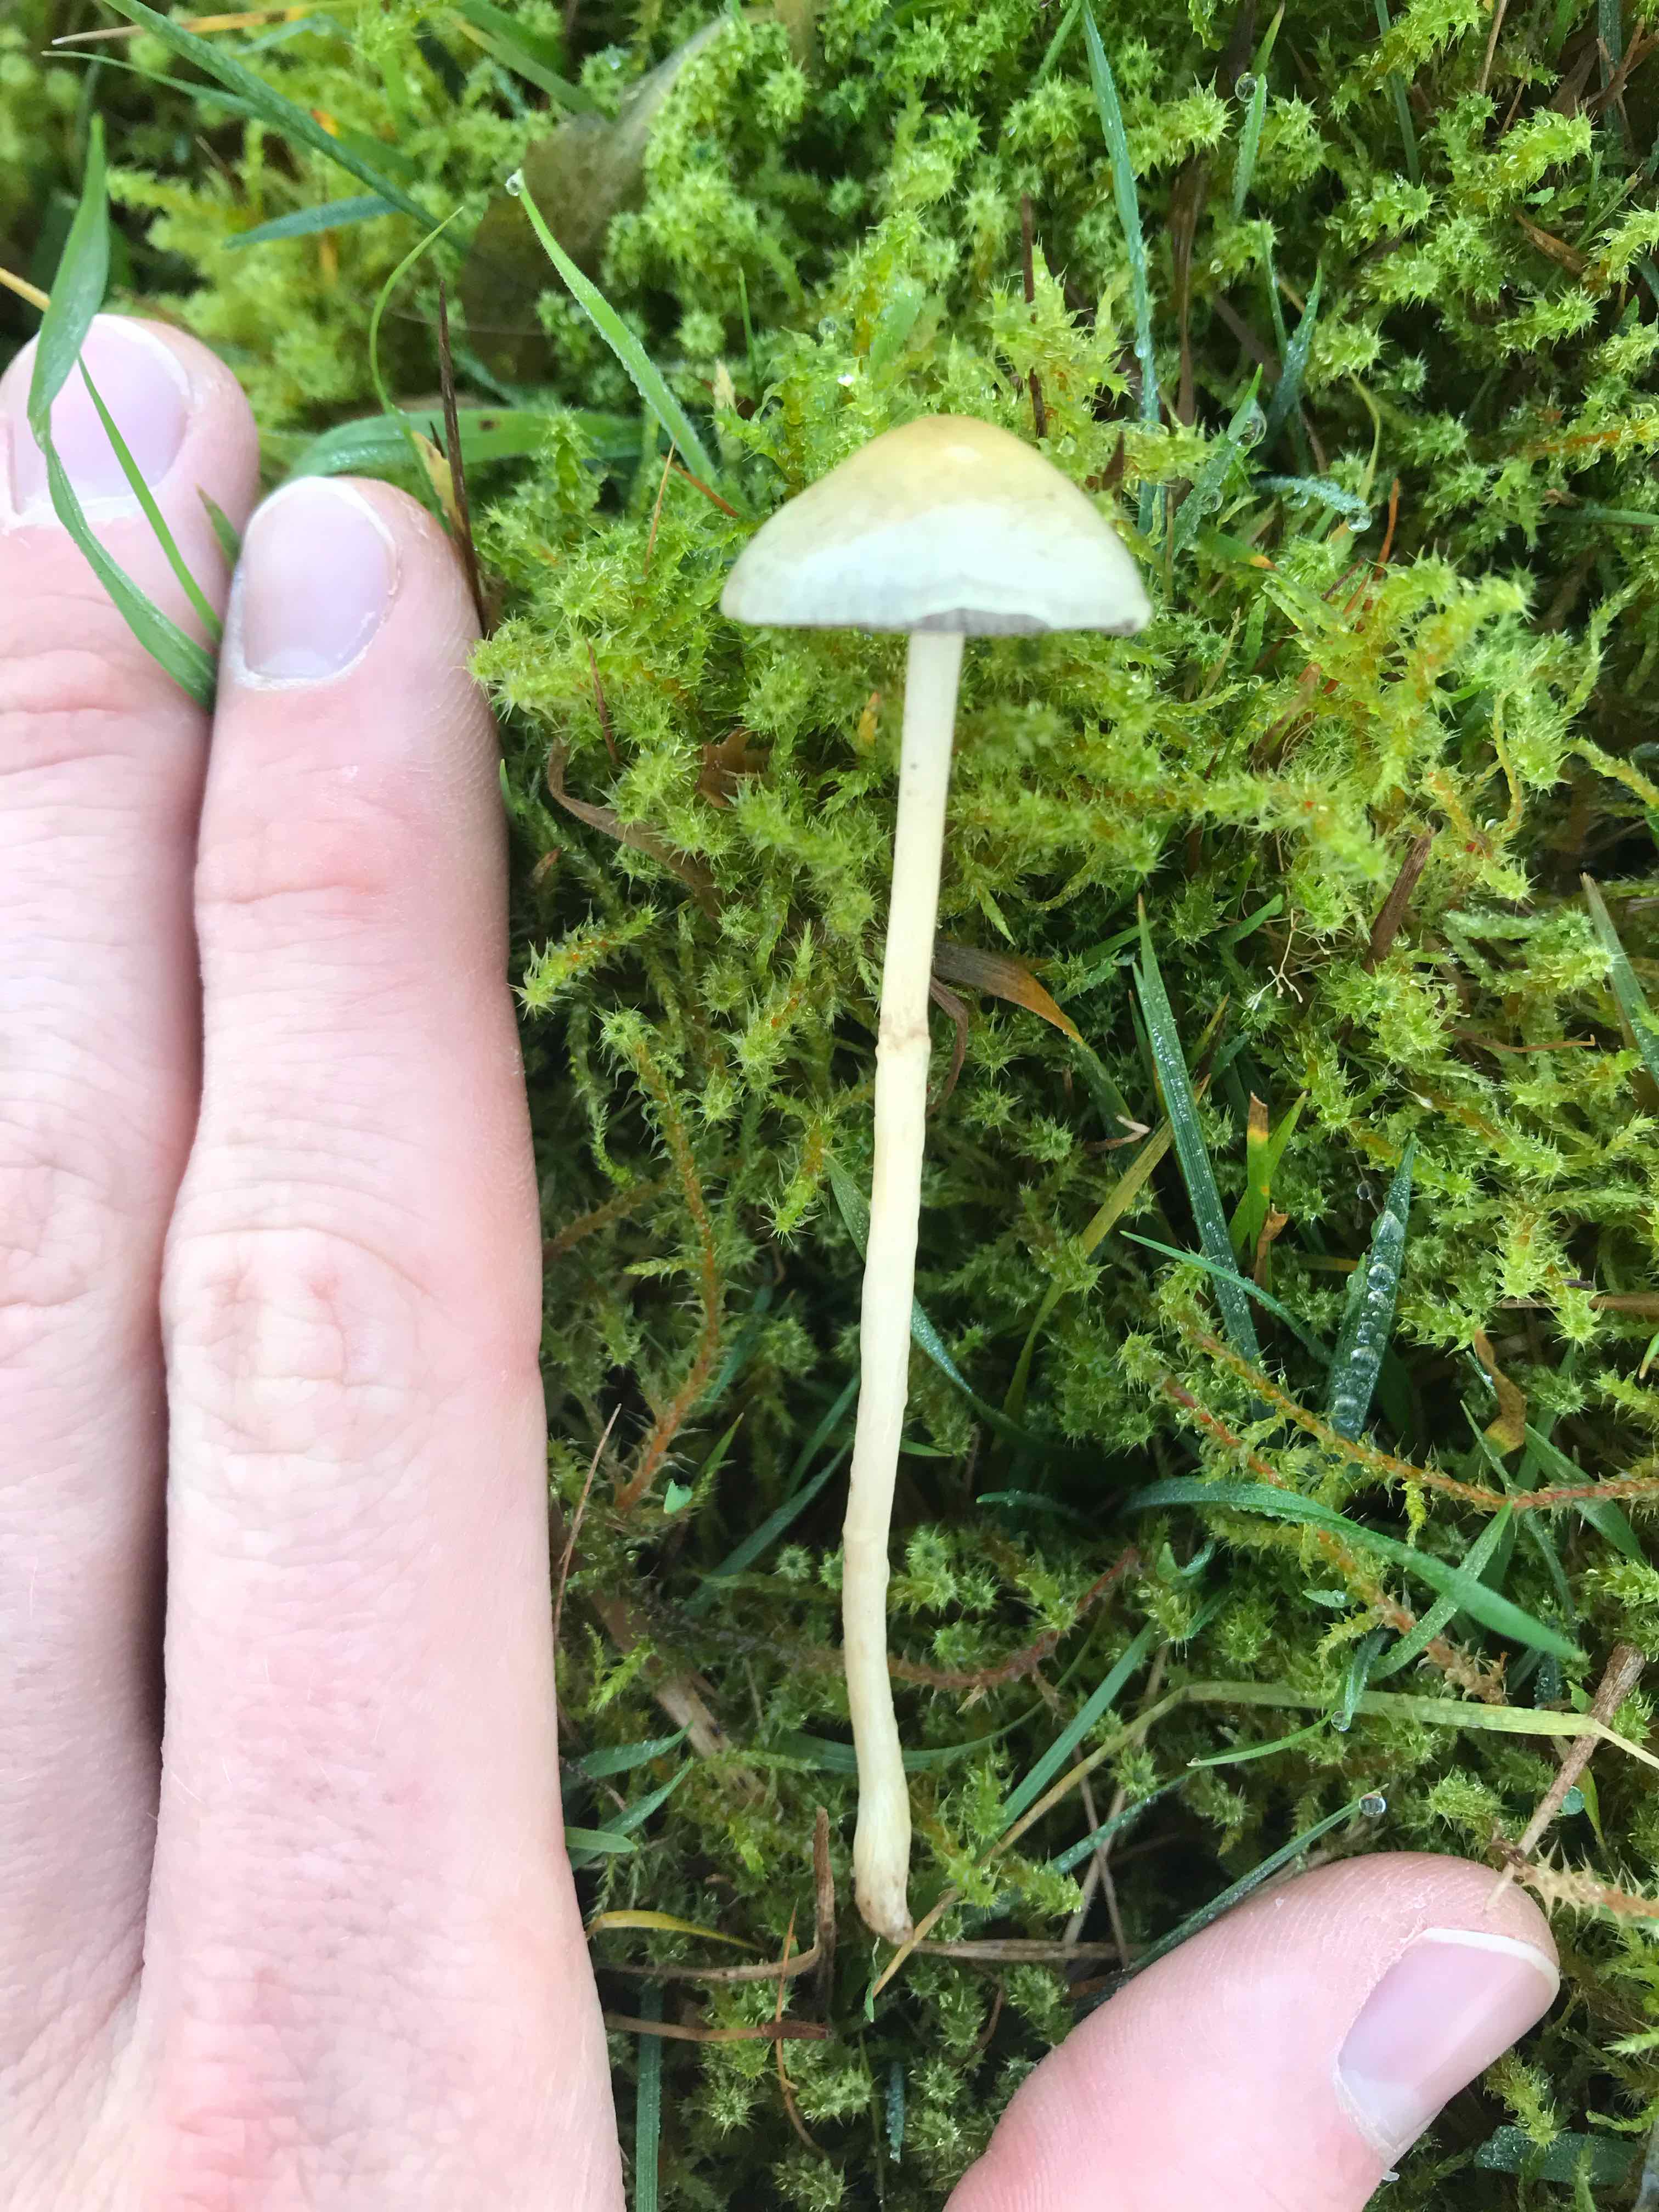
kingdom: Fungi
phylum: Basidiomycota
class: Agaricomycetes
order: Agaricales
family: Strophariaceae
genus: Protostropharia
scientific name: Protostropharia semiglobata
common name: halvkugleformet bredblad
